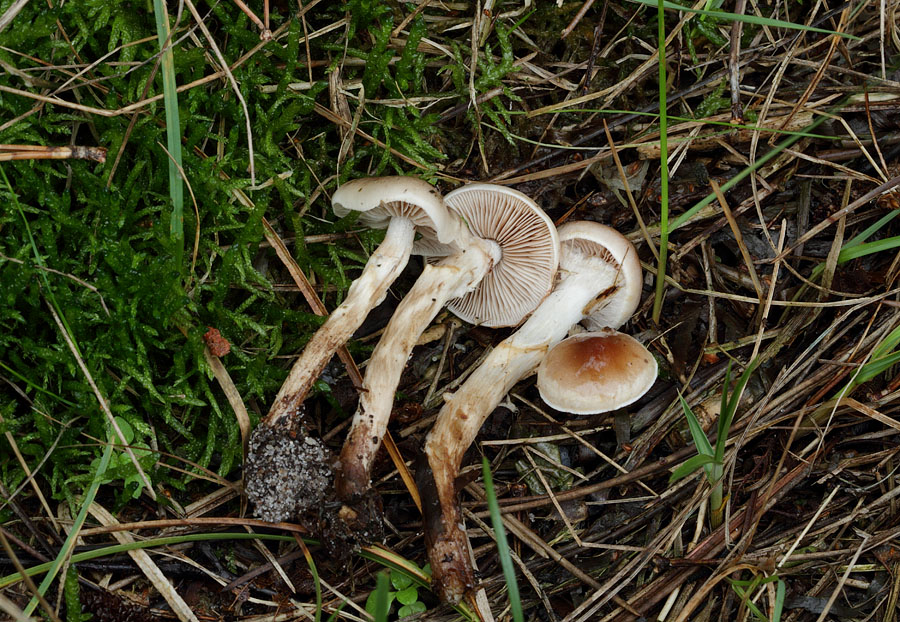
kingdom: Fungi
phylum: Basidiomycota
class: Agaricomycetes
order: Agaricales
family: Hymenogastraceae
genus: Hebeloma
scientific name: Hebeloma mesophaeum
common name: lerbrun tåreblad
